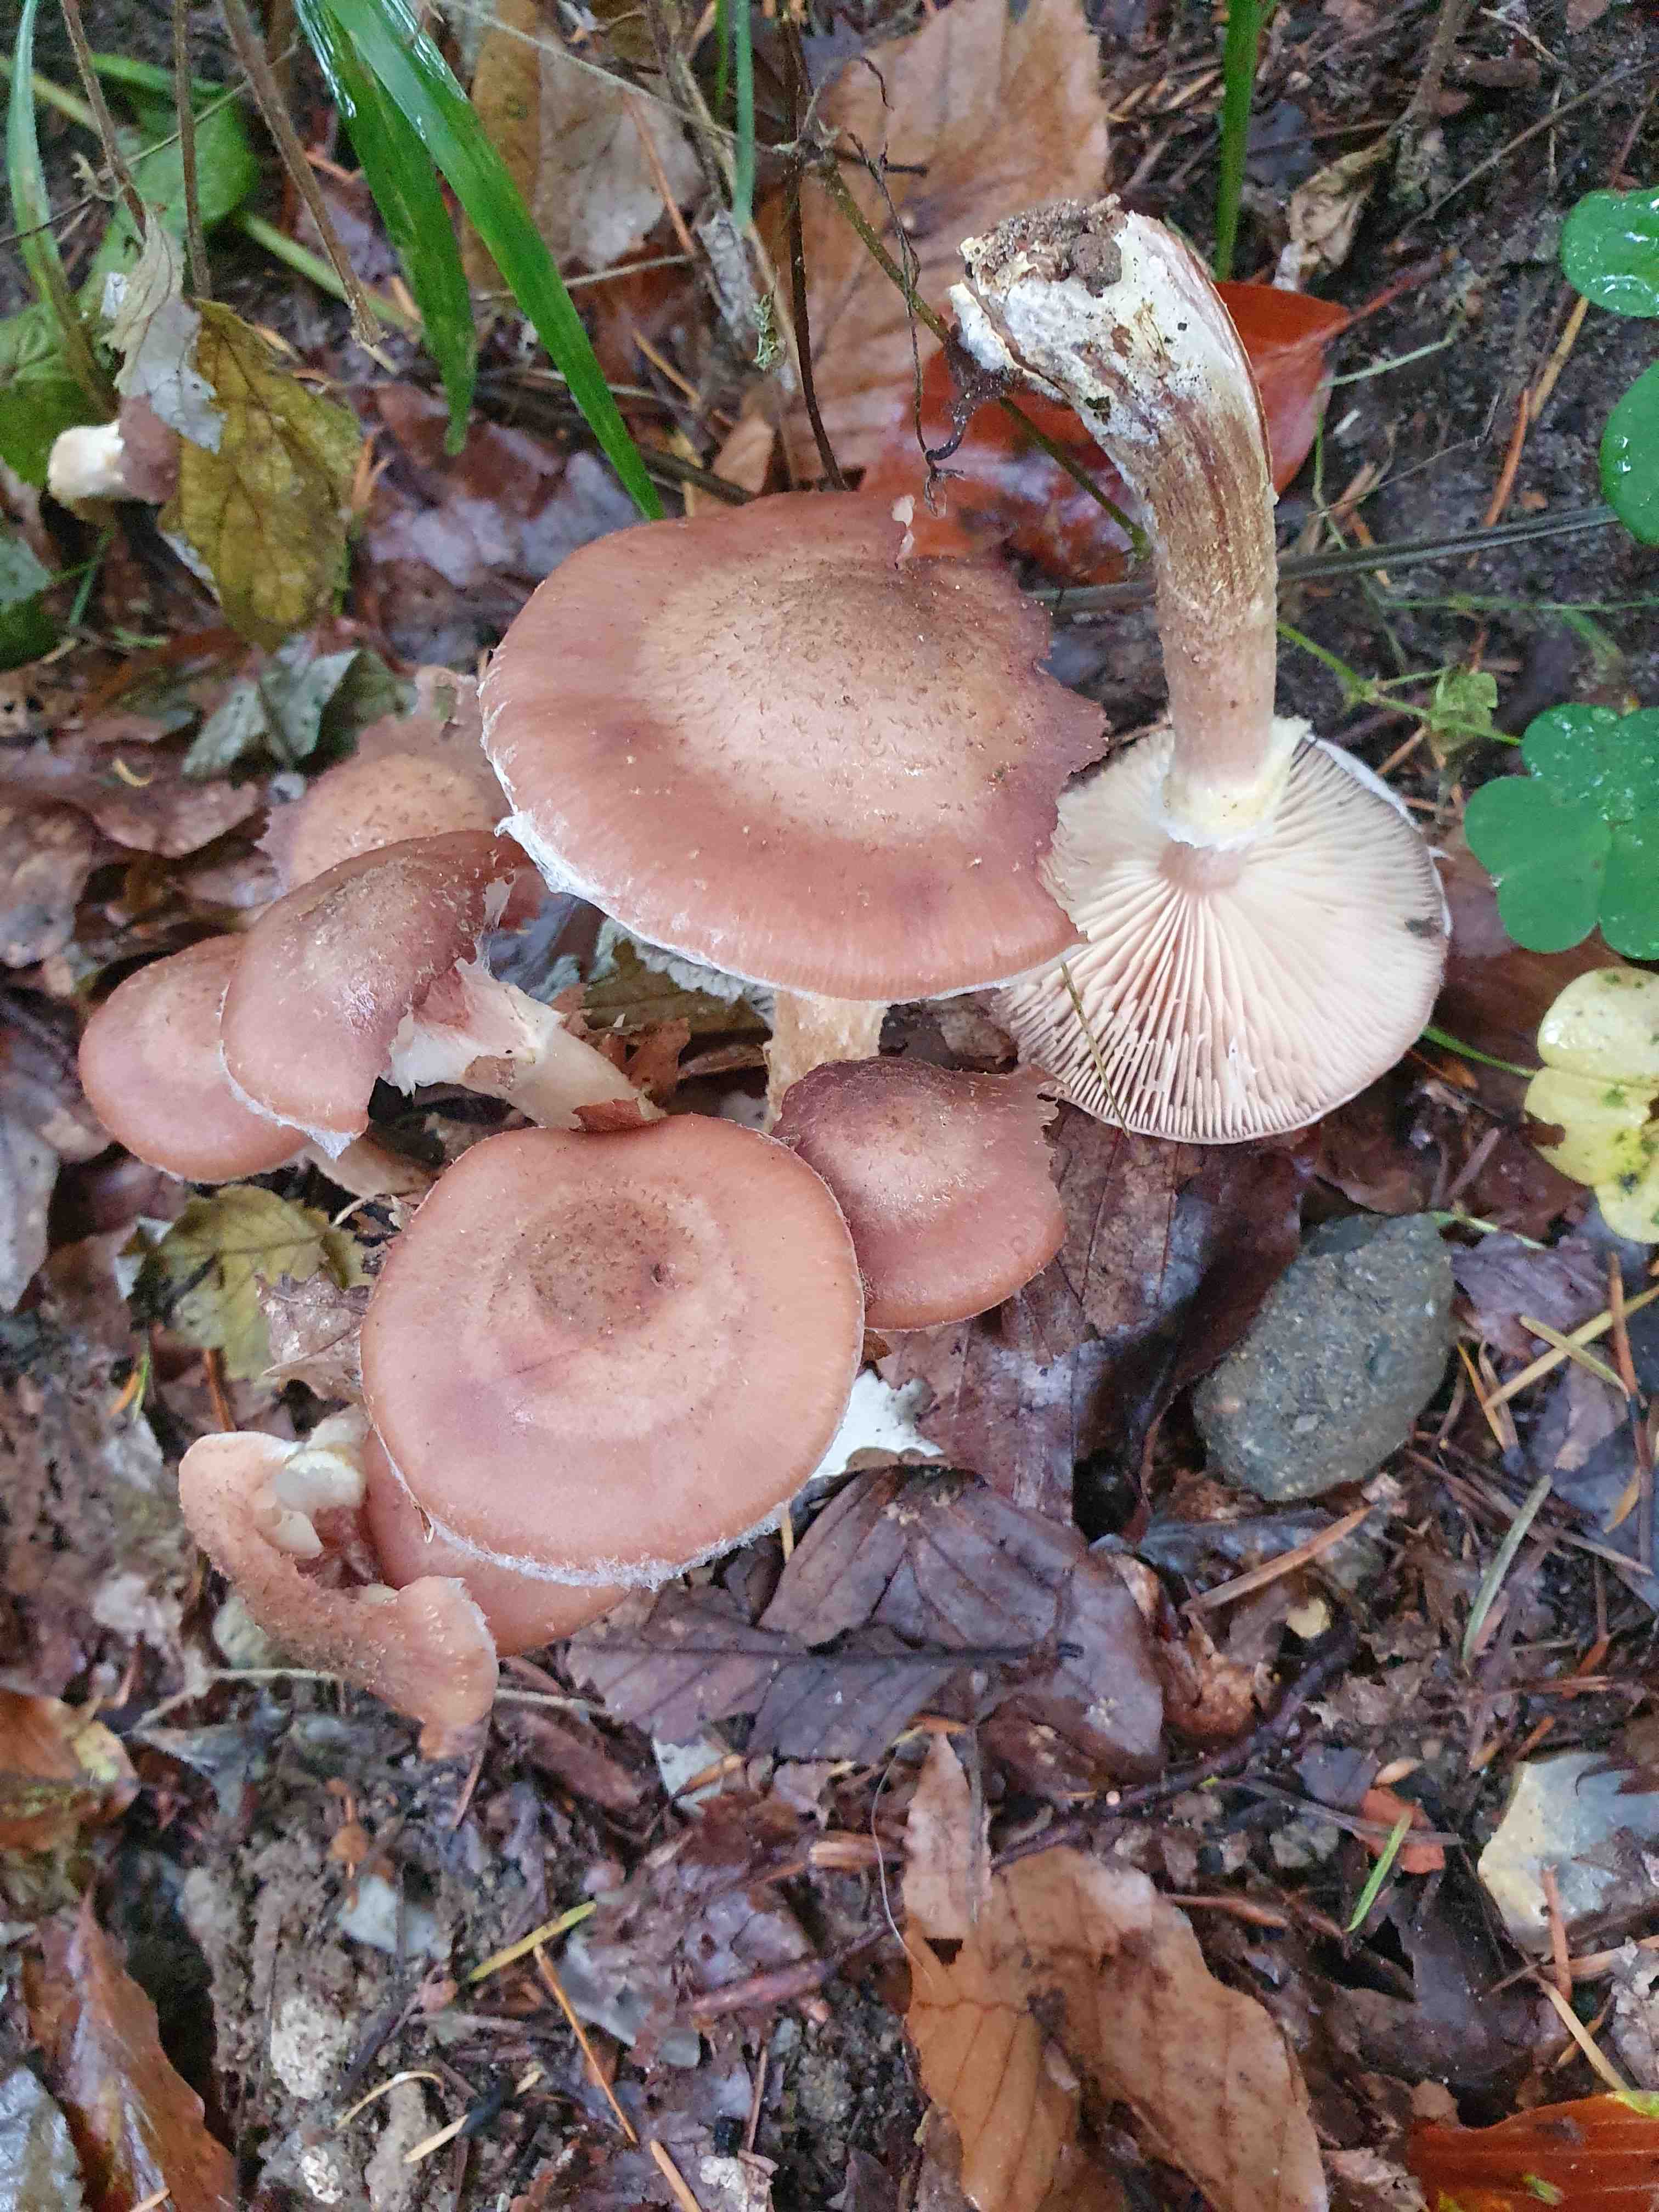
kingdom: Fungi
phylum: Basidiomycota
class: Agaricomycetes
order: Agaricales
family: Physalacriaceae
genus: Armillaria
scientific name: Armillaria lutea
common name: køllestokket honningsvamp
